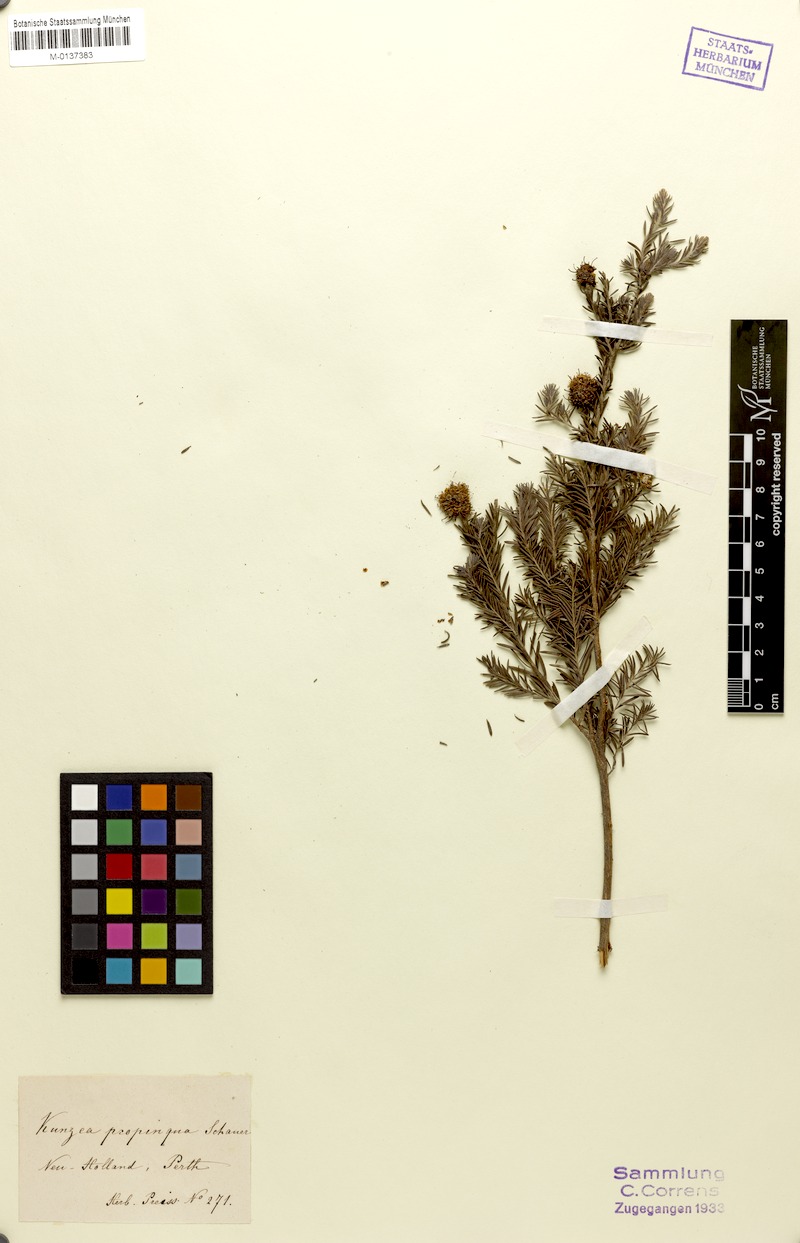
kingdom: Plantae
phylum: Tracheophyta
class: Magnoliopsida
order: Myrtales
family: Myrtaceae
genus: Kunzea
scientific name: Kunzea ericifolia
